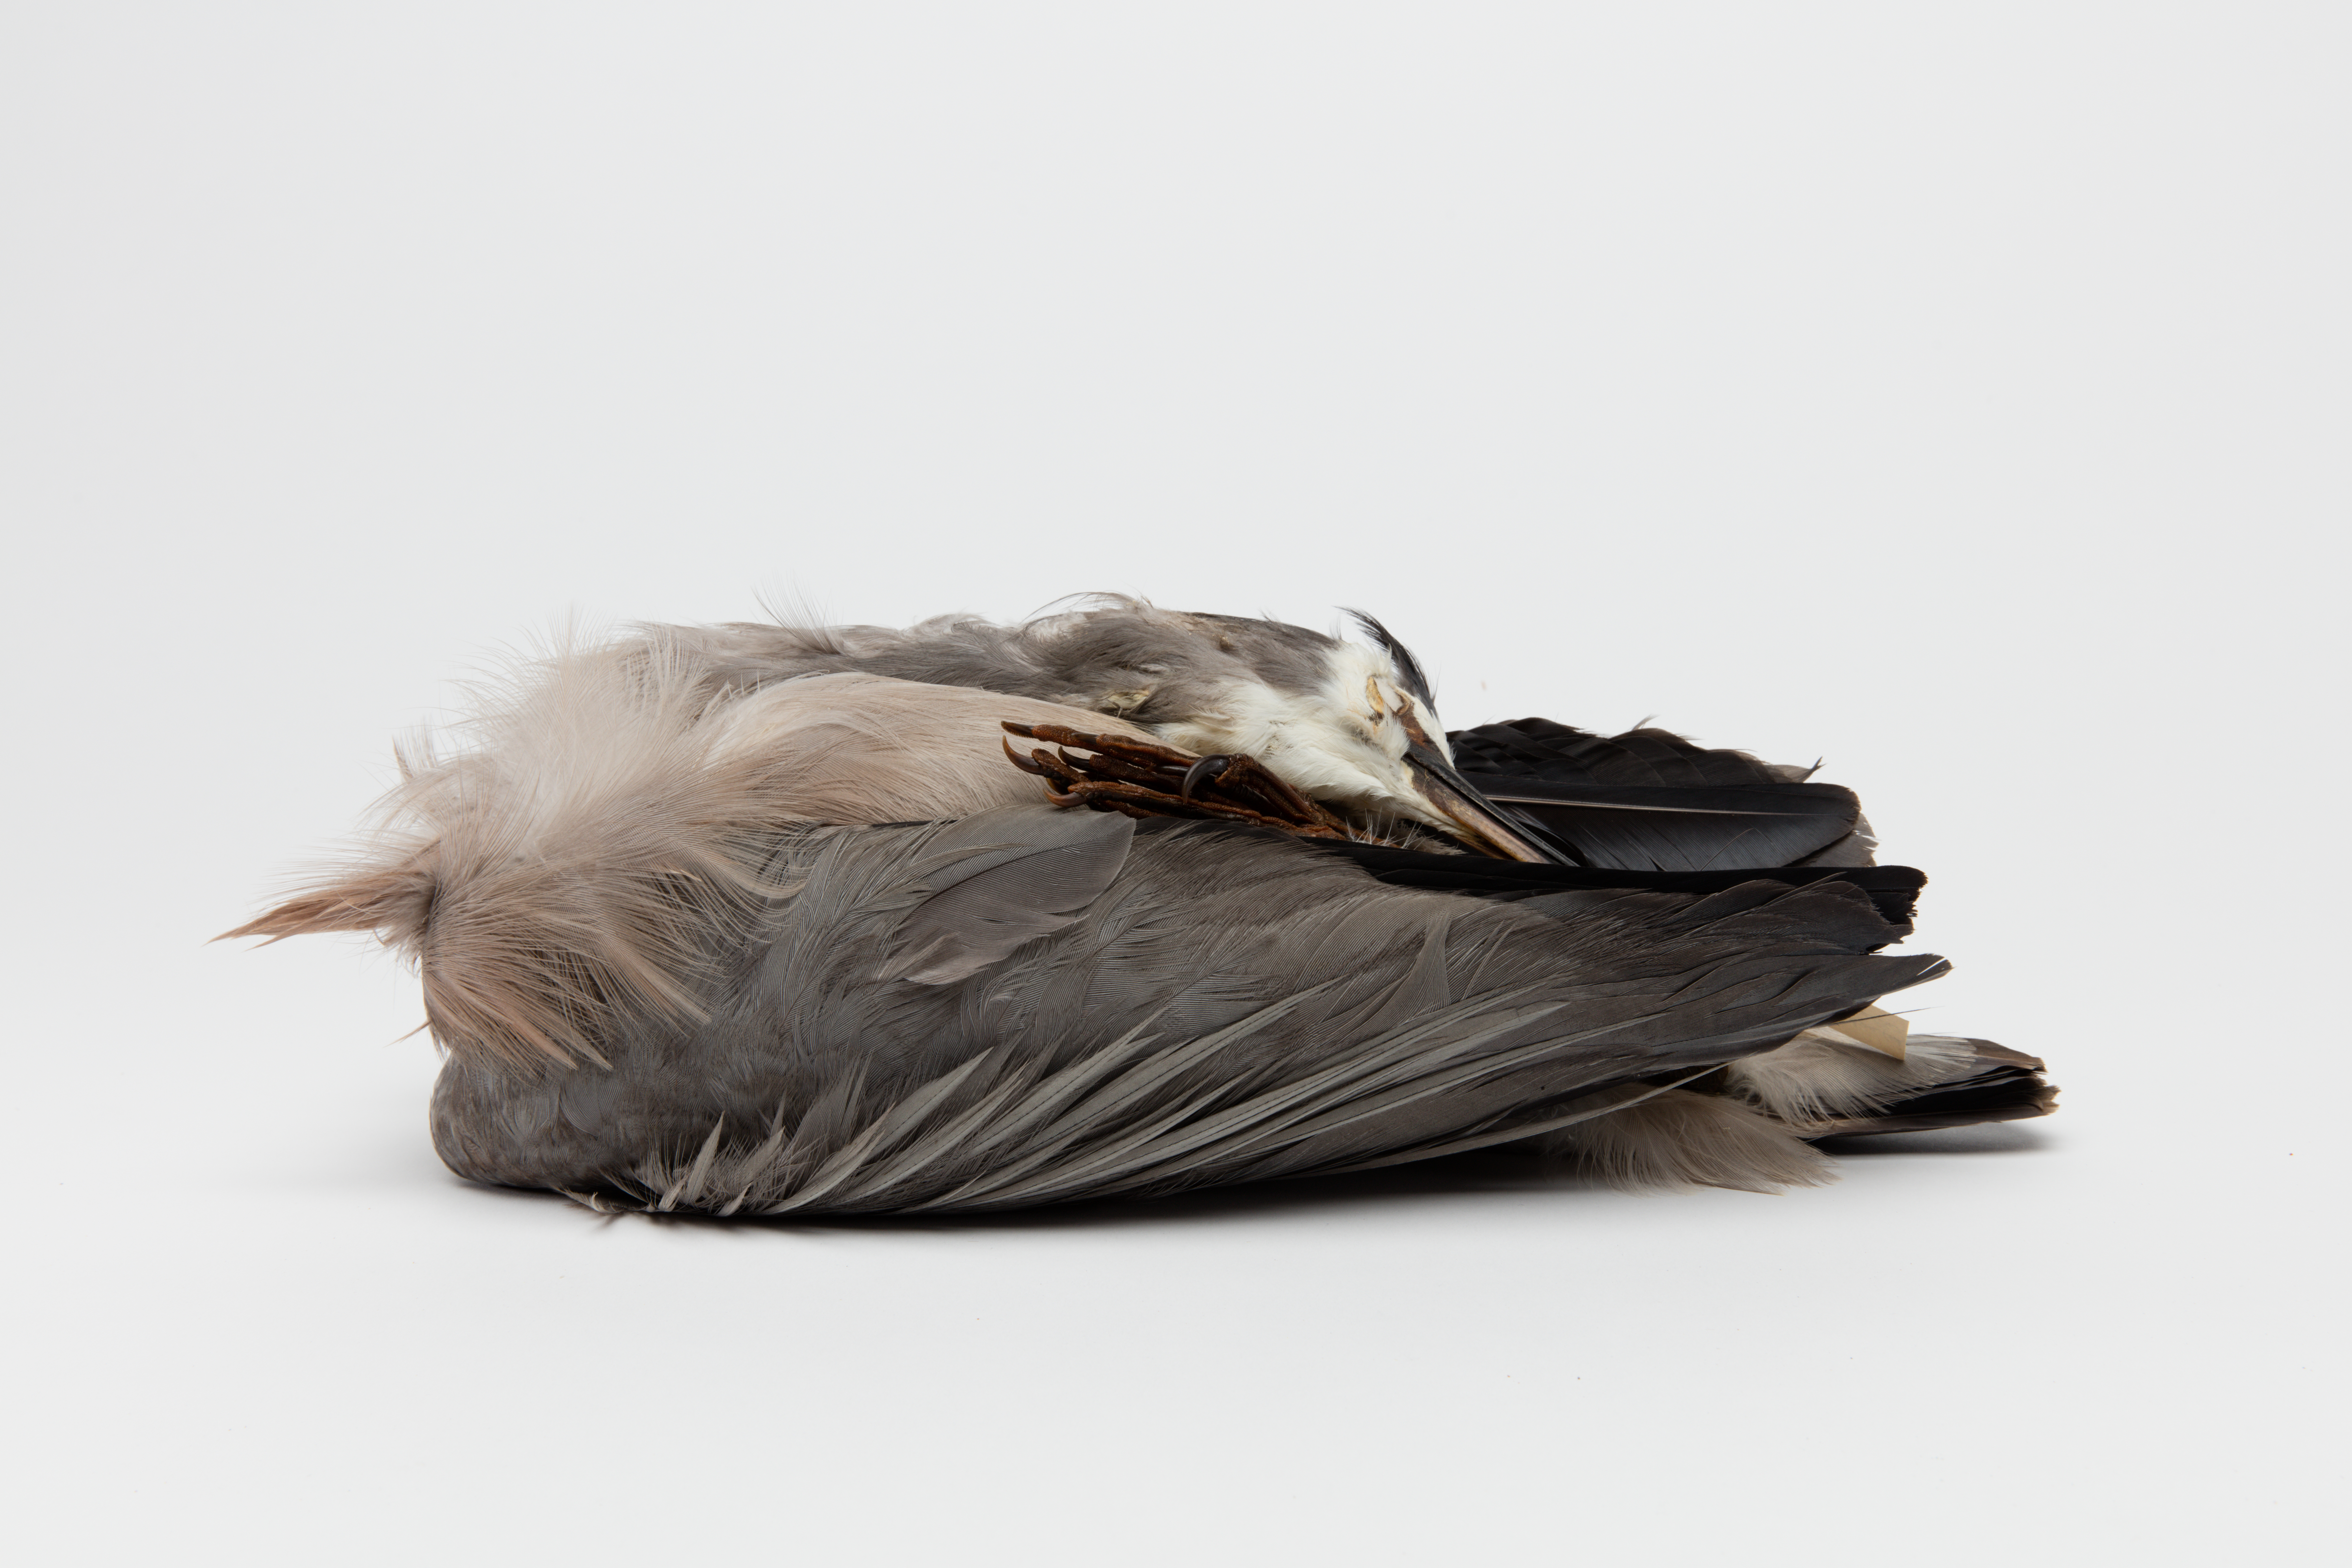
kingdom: Animalia
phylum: Chordata
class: Aves
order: Pelecaniformes
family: Ardeidae
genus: Egretta
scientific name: Egretta novaehollandiae
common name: White-faced heron
